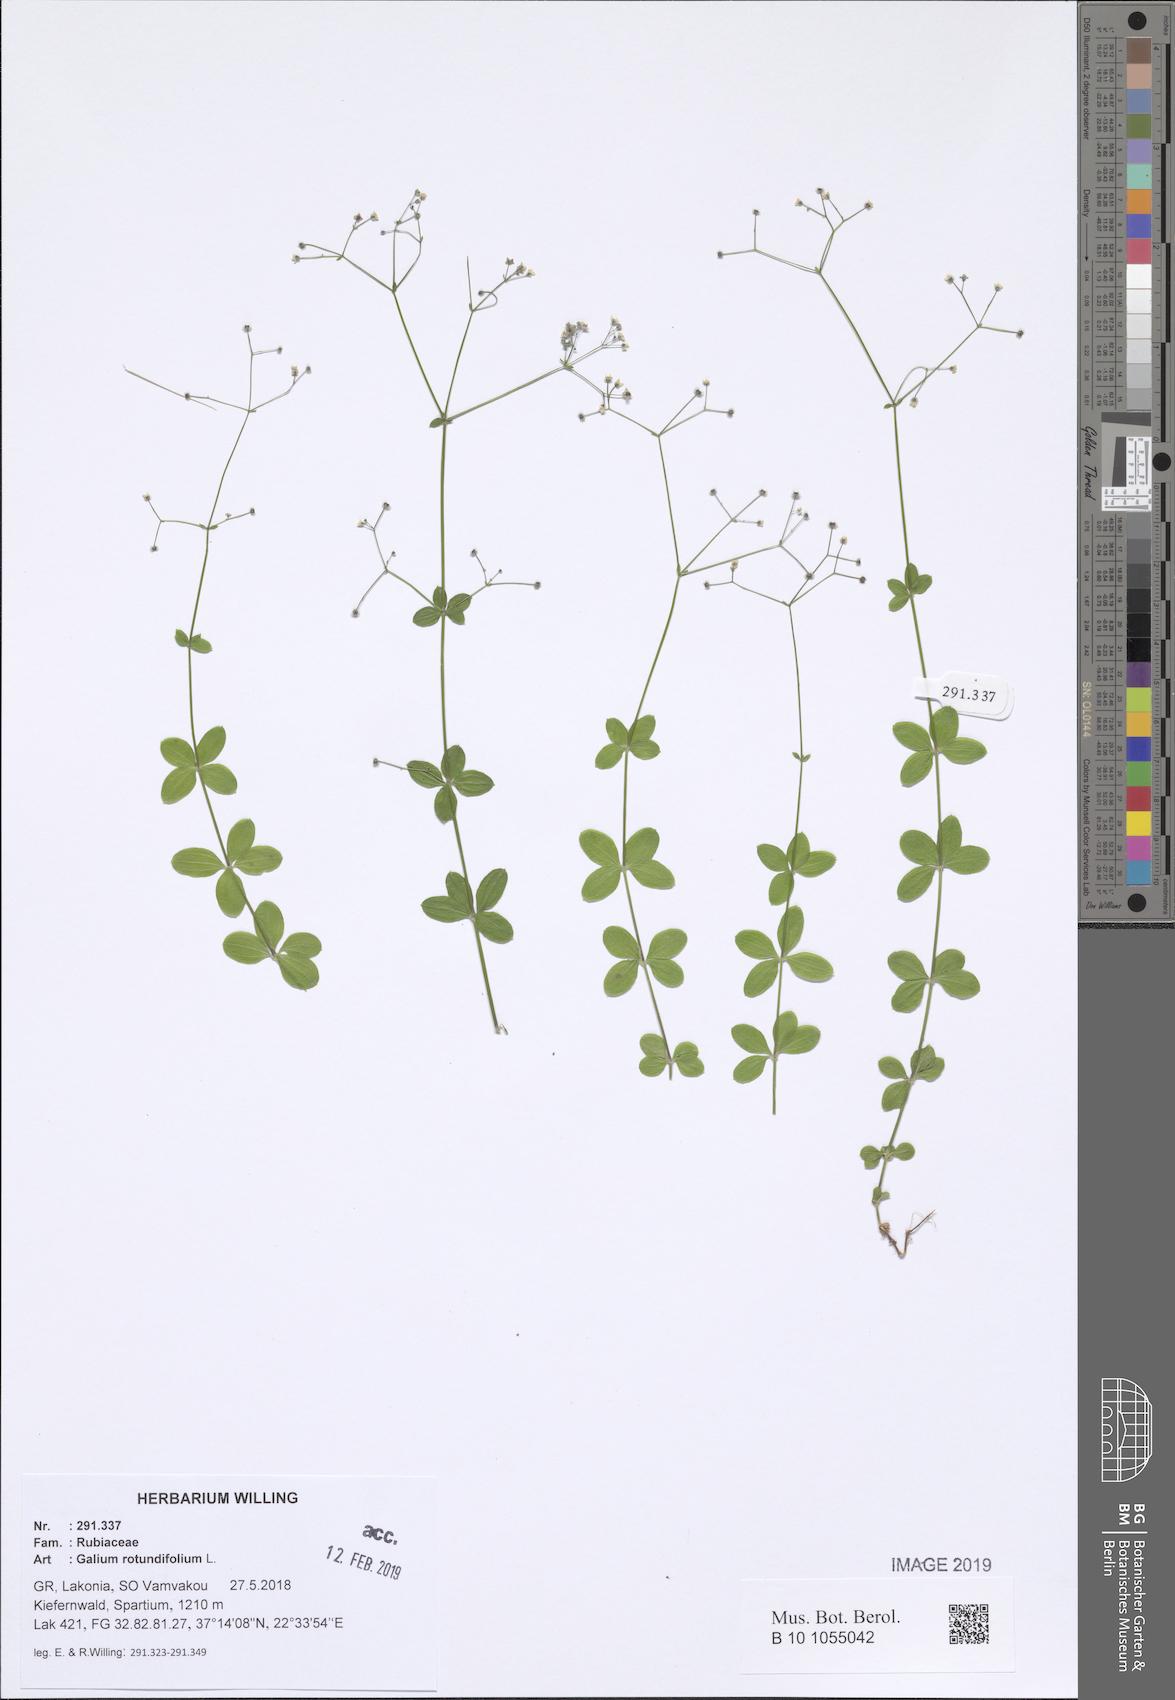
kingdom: Plantae
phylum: Tracheophyta
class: Magnoliopsida
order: Gentianales
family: Rubiaceae
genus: Galium
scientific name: Galium rotundifolium
